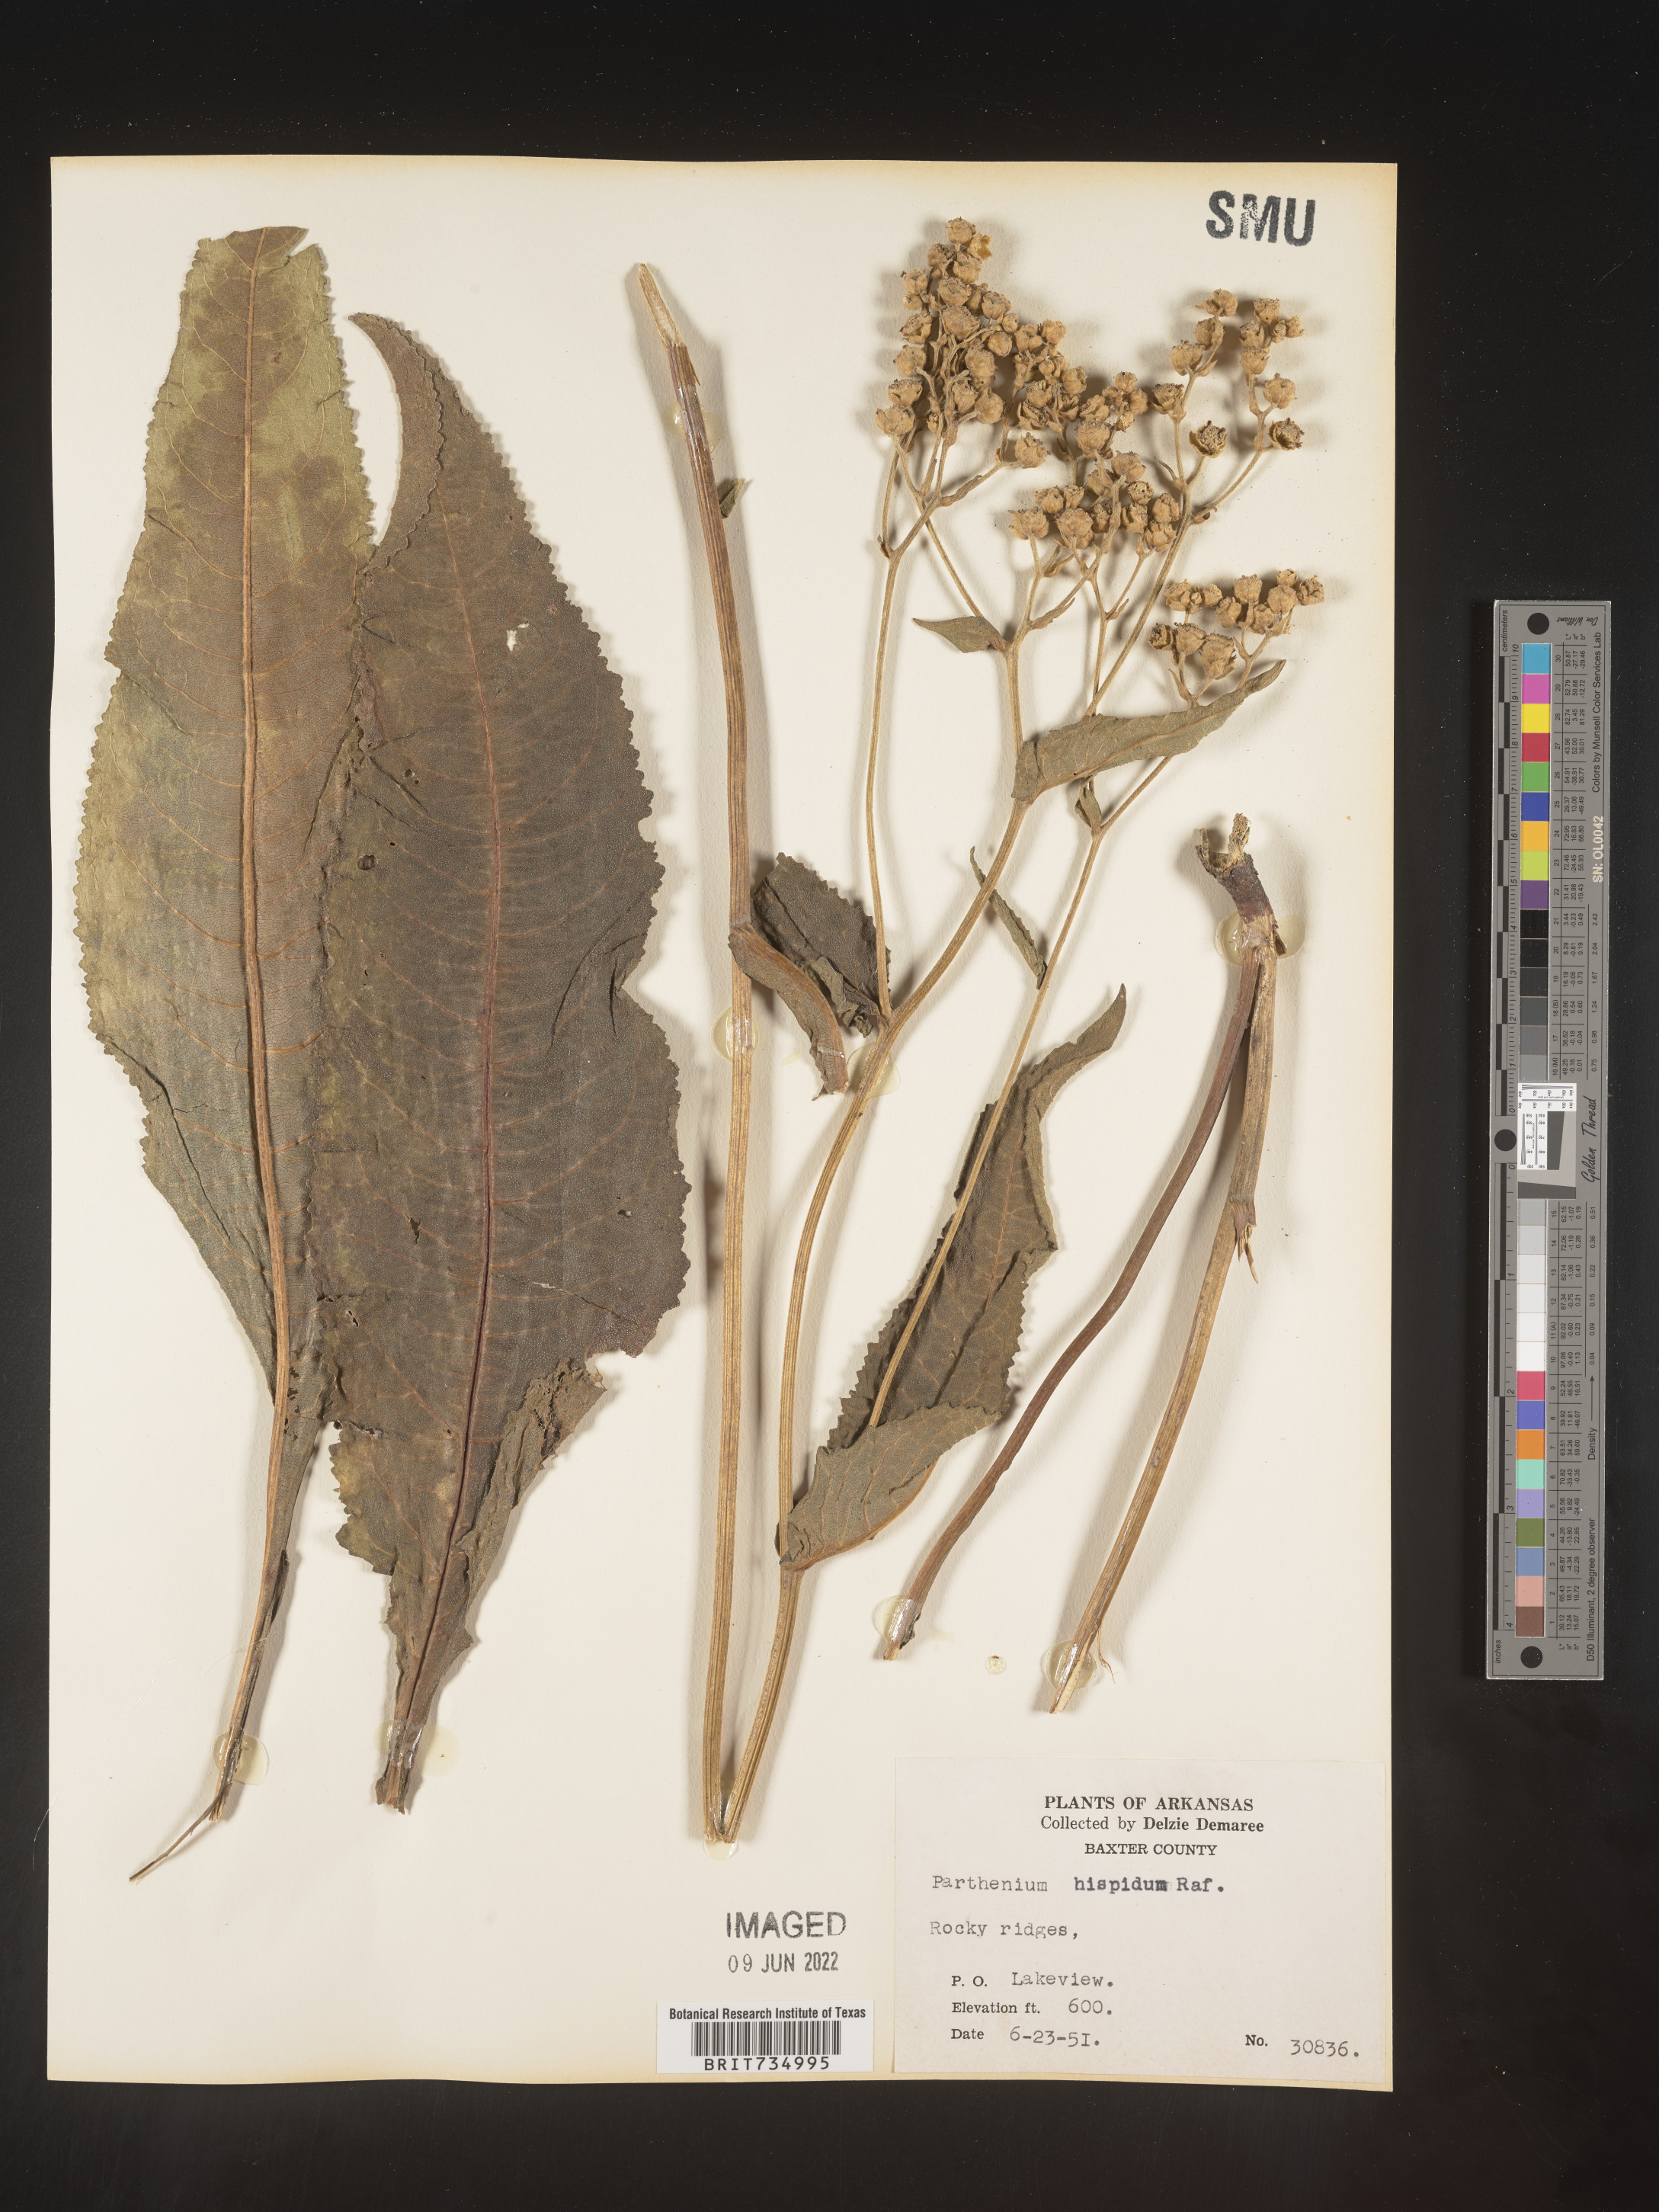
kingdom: Plantae
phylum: Tracheophyta
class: Magnoliopsida
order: Asterales
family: Asteraceae
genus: Parthenium
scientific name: Parthenium hispidum
